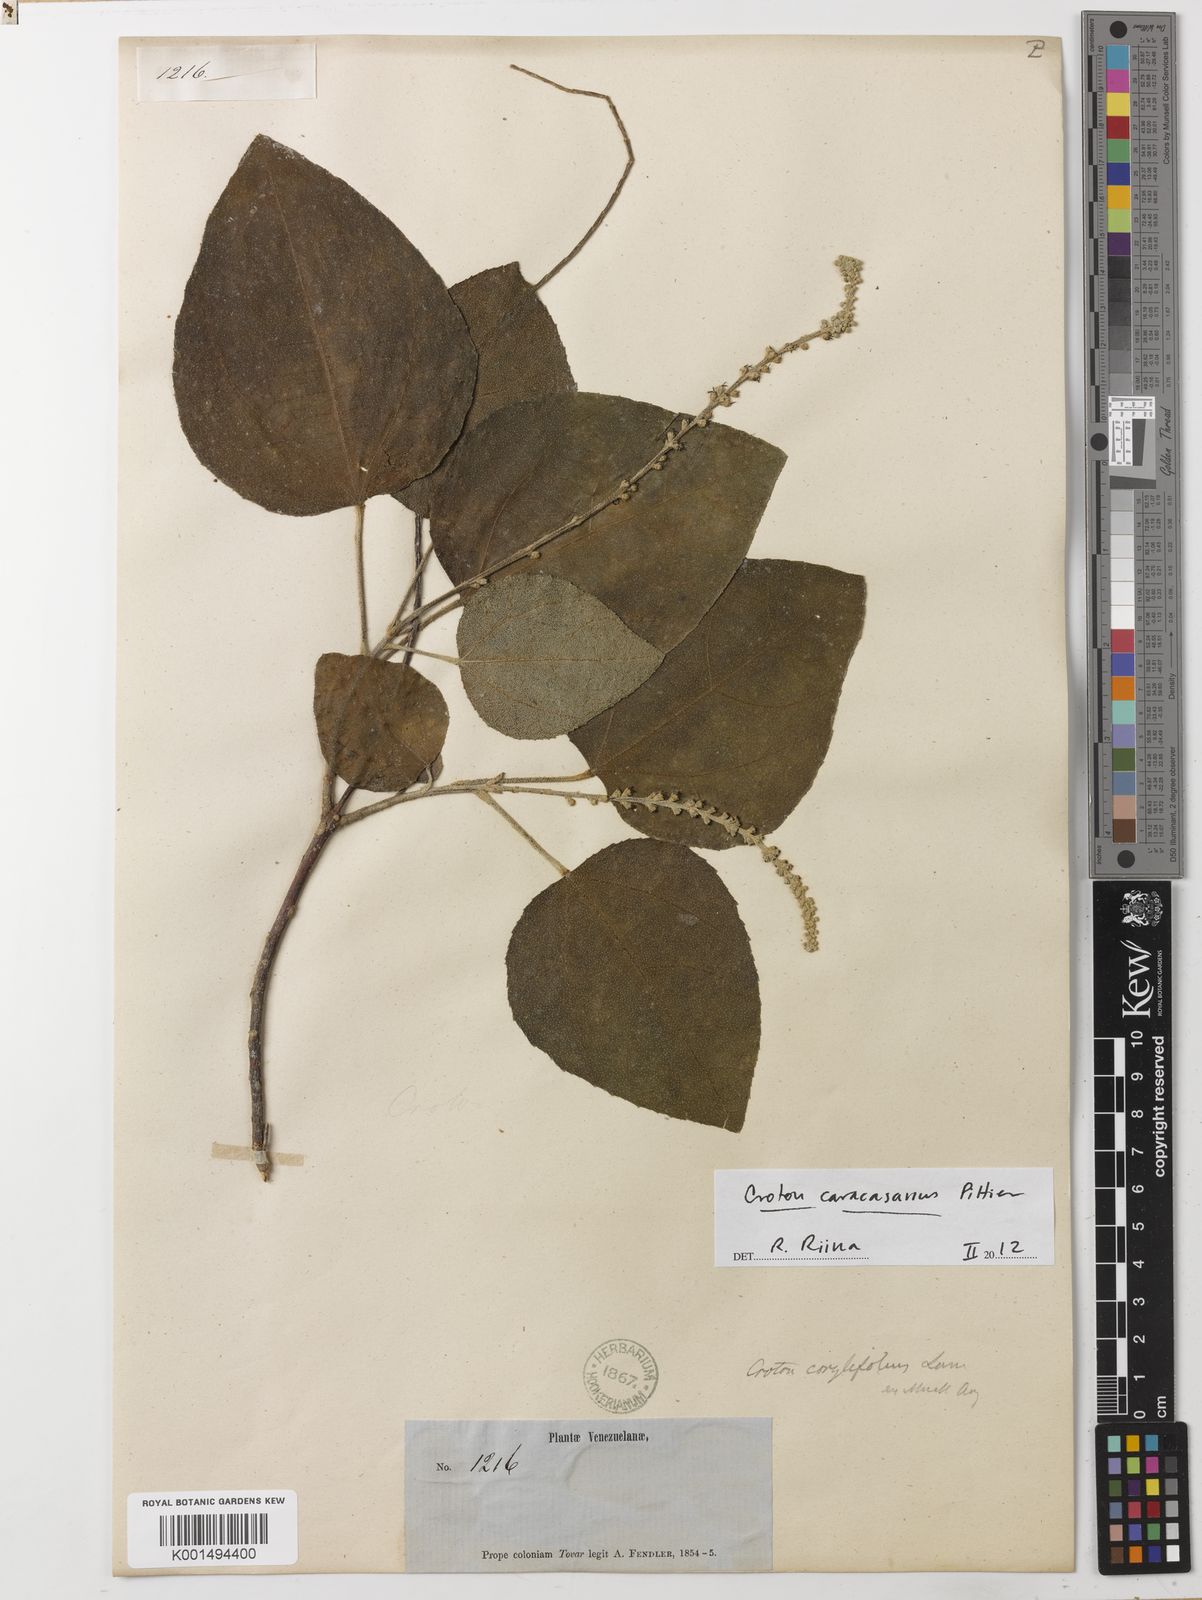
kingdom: Plantae
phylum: Tracheophyta
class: Magnoliopsida
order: Malpighiales
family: Euphorbiaceae
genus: Croton
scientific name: Croton caracasanus
